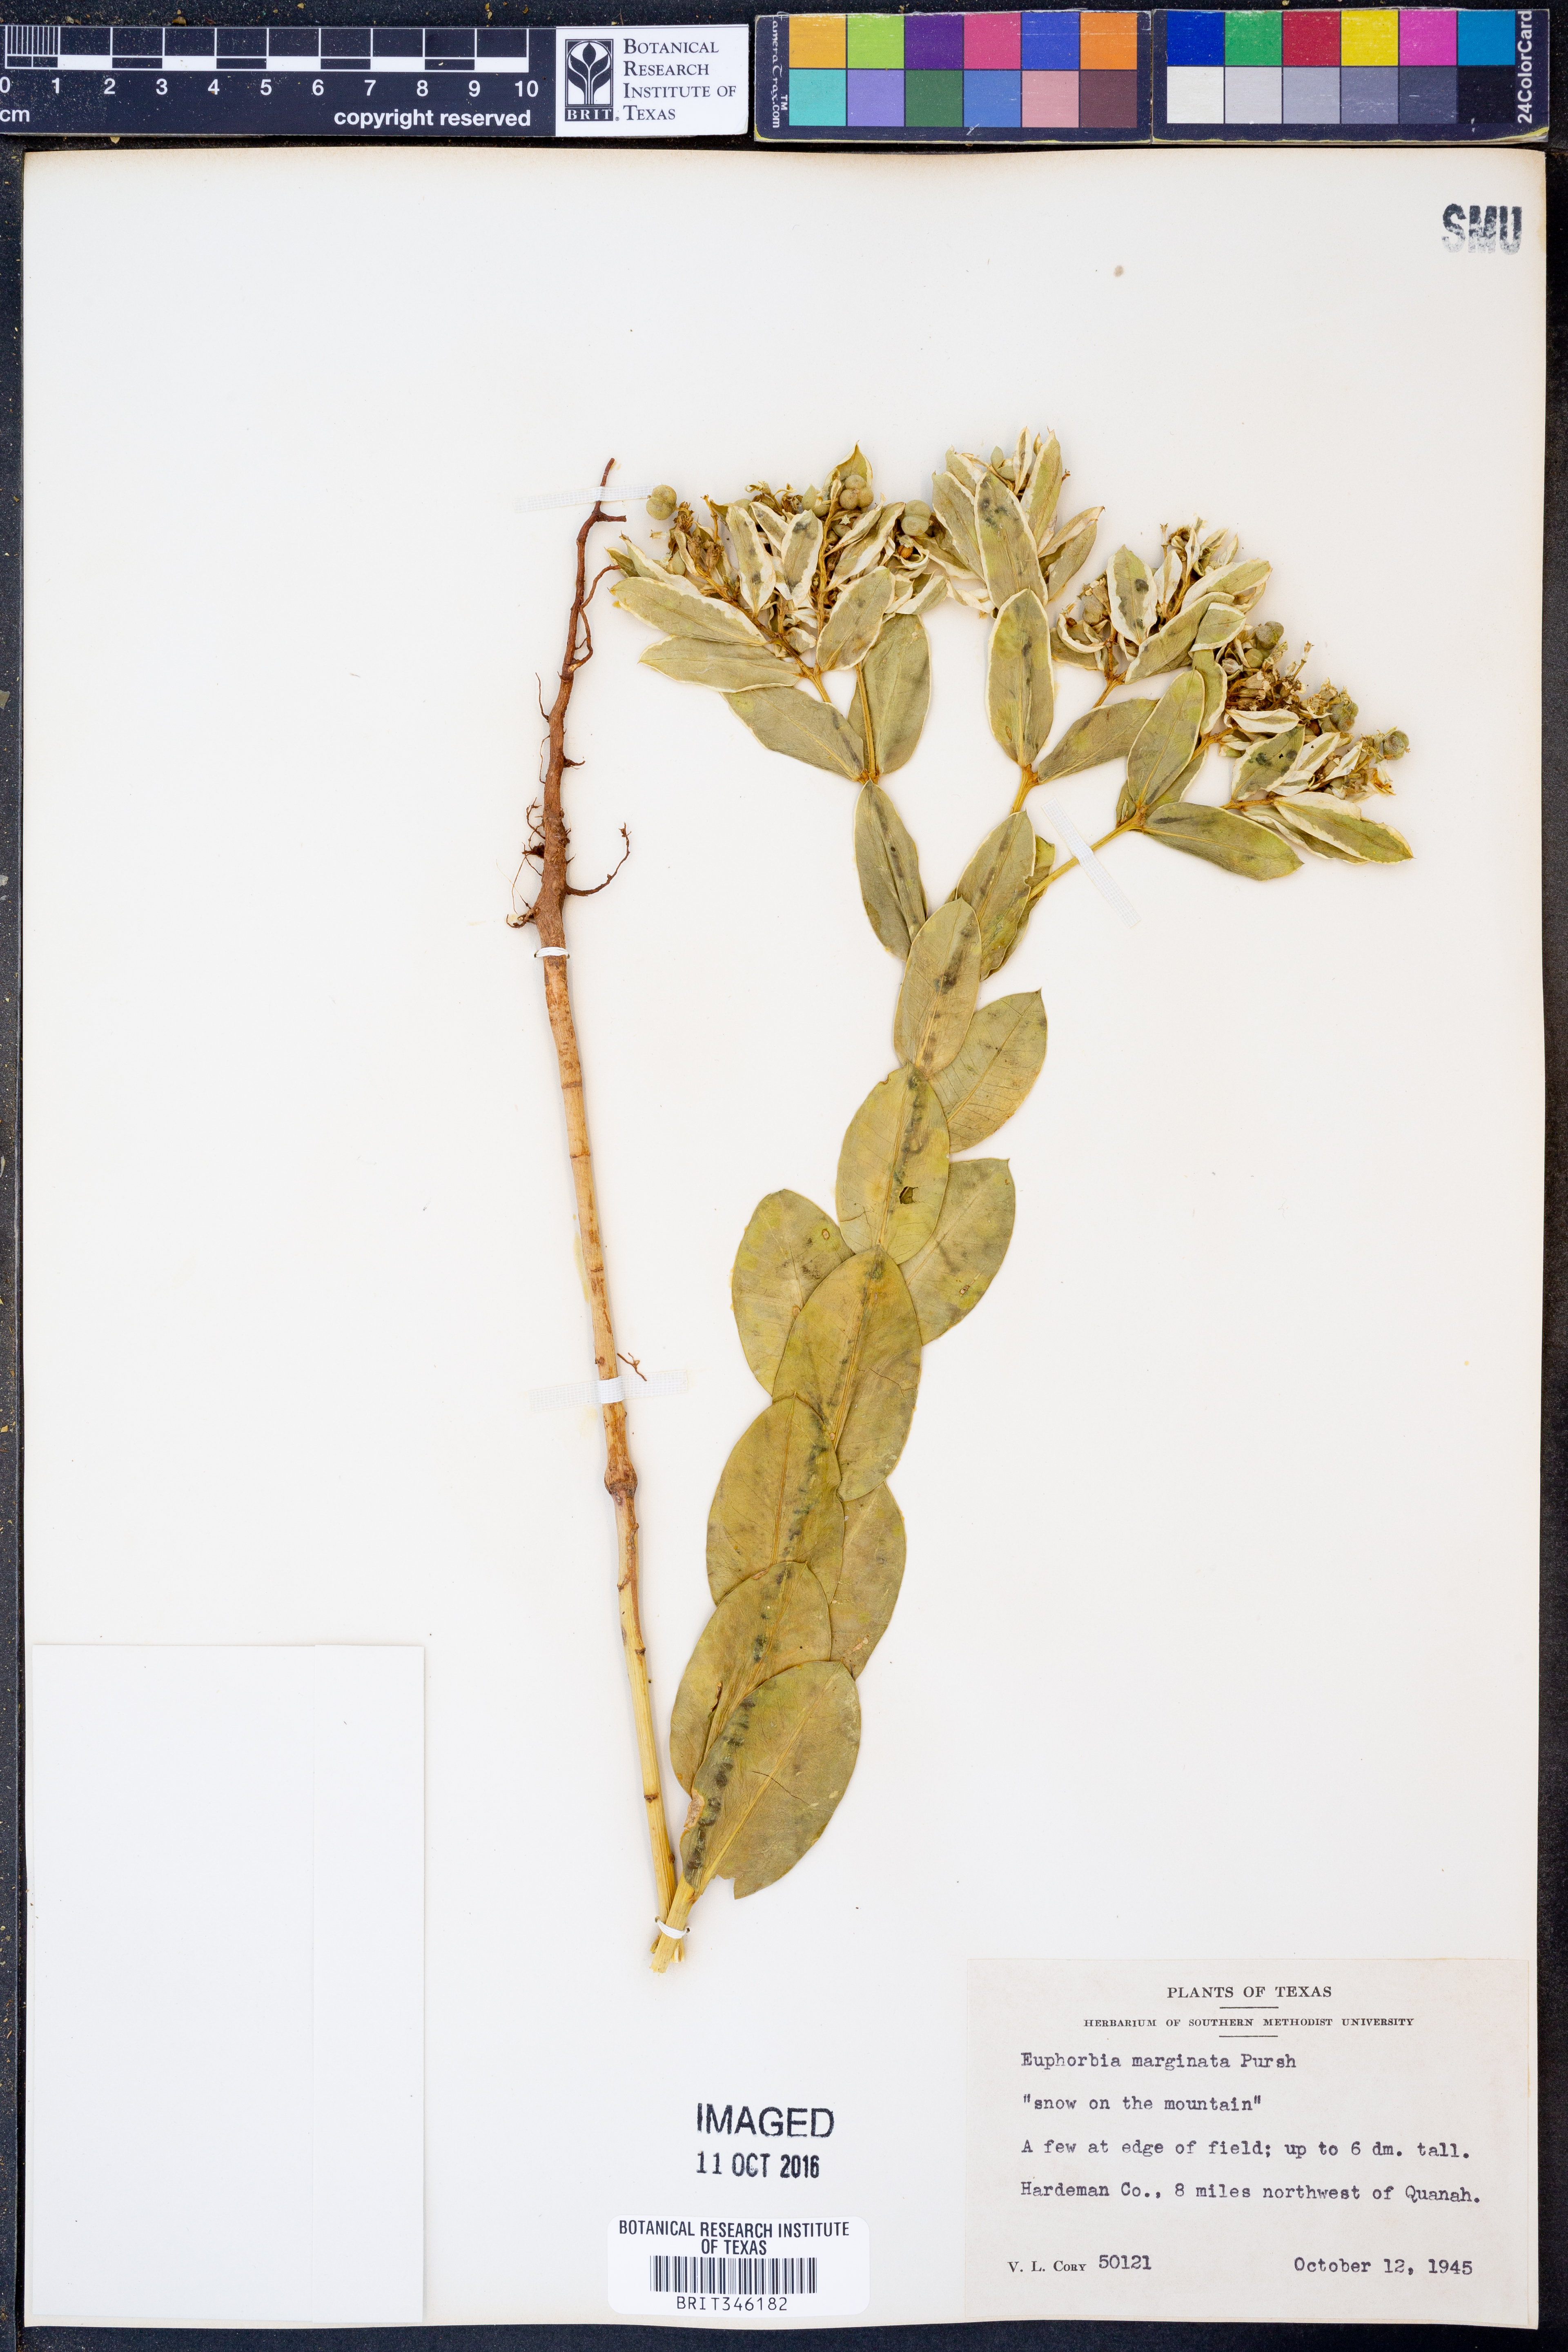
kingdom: Plantae
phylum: Tracheophyta
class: Magnoliopsida
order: Malpighiales
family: Euphorbiaceae
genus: Euphorbia
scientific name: Euphorbia marginata
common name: Ghostweed
